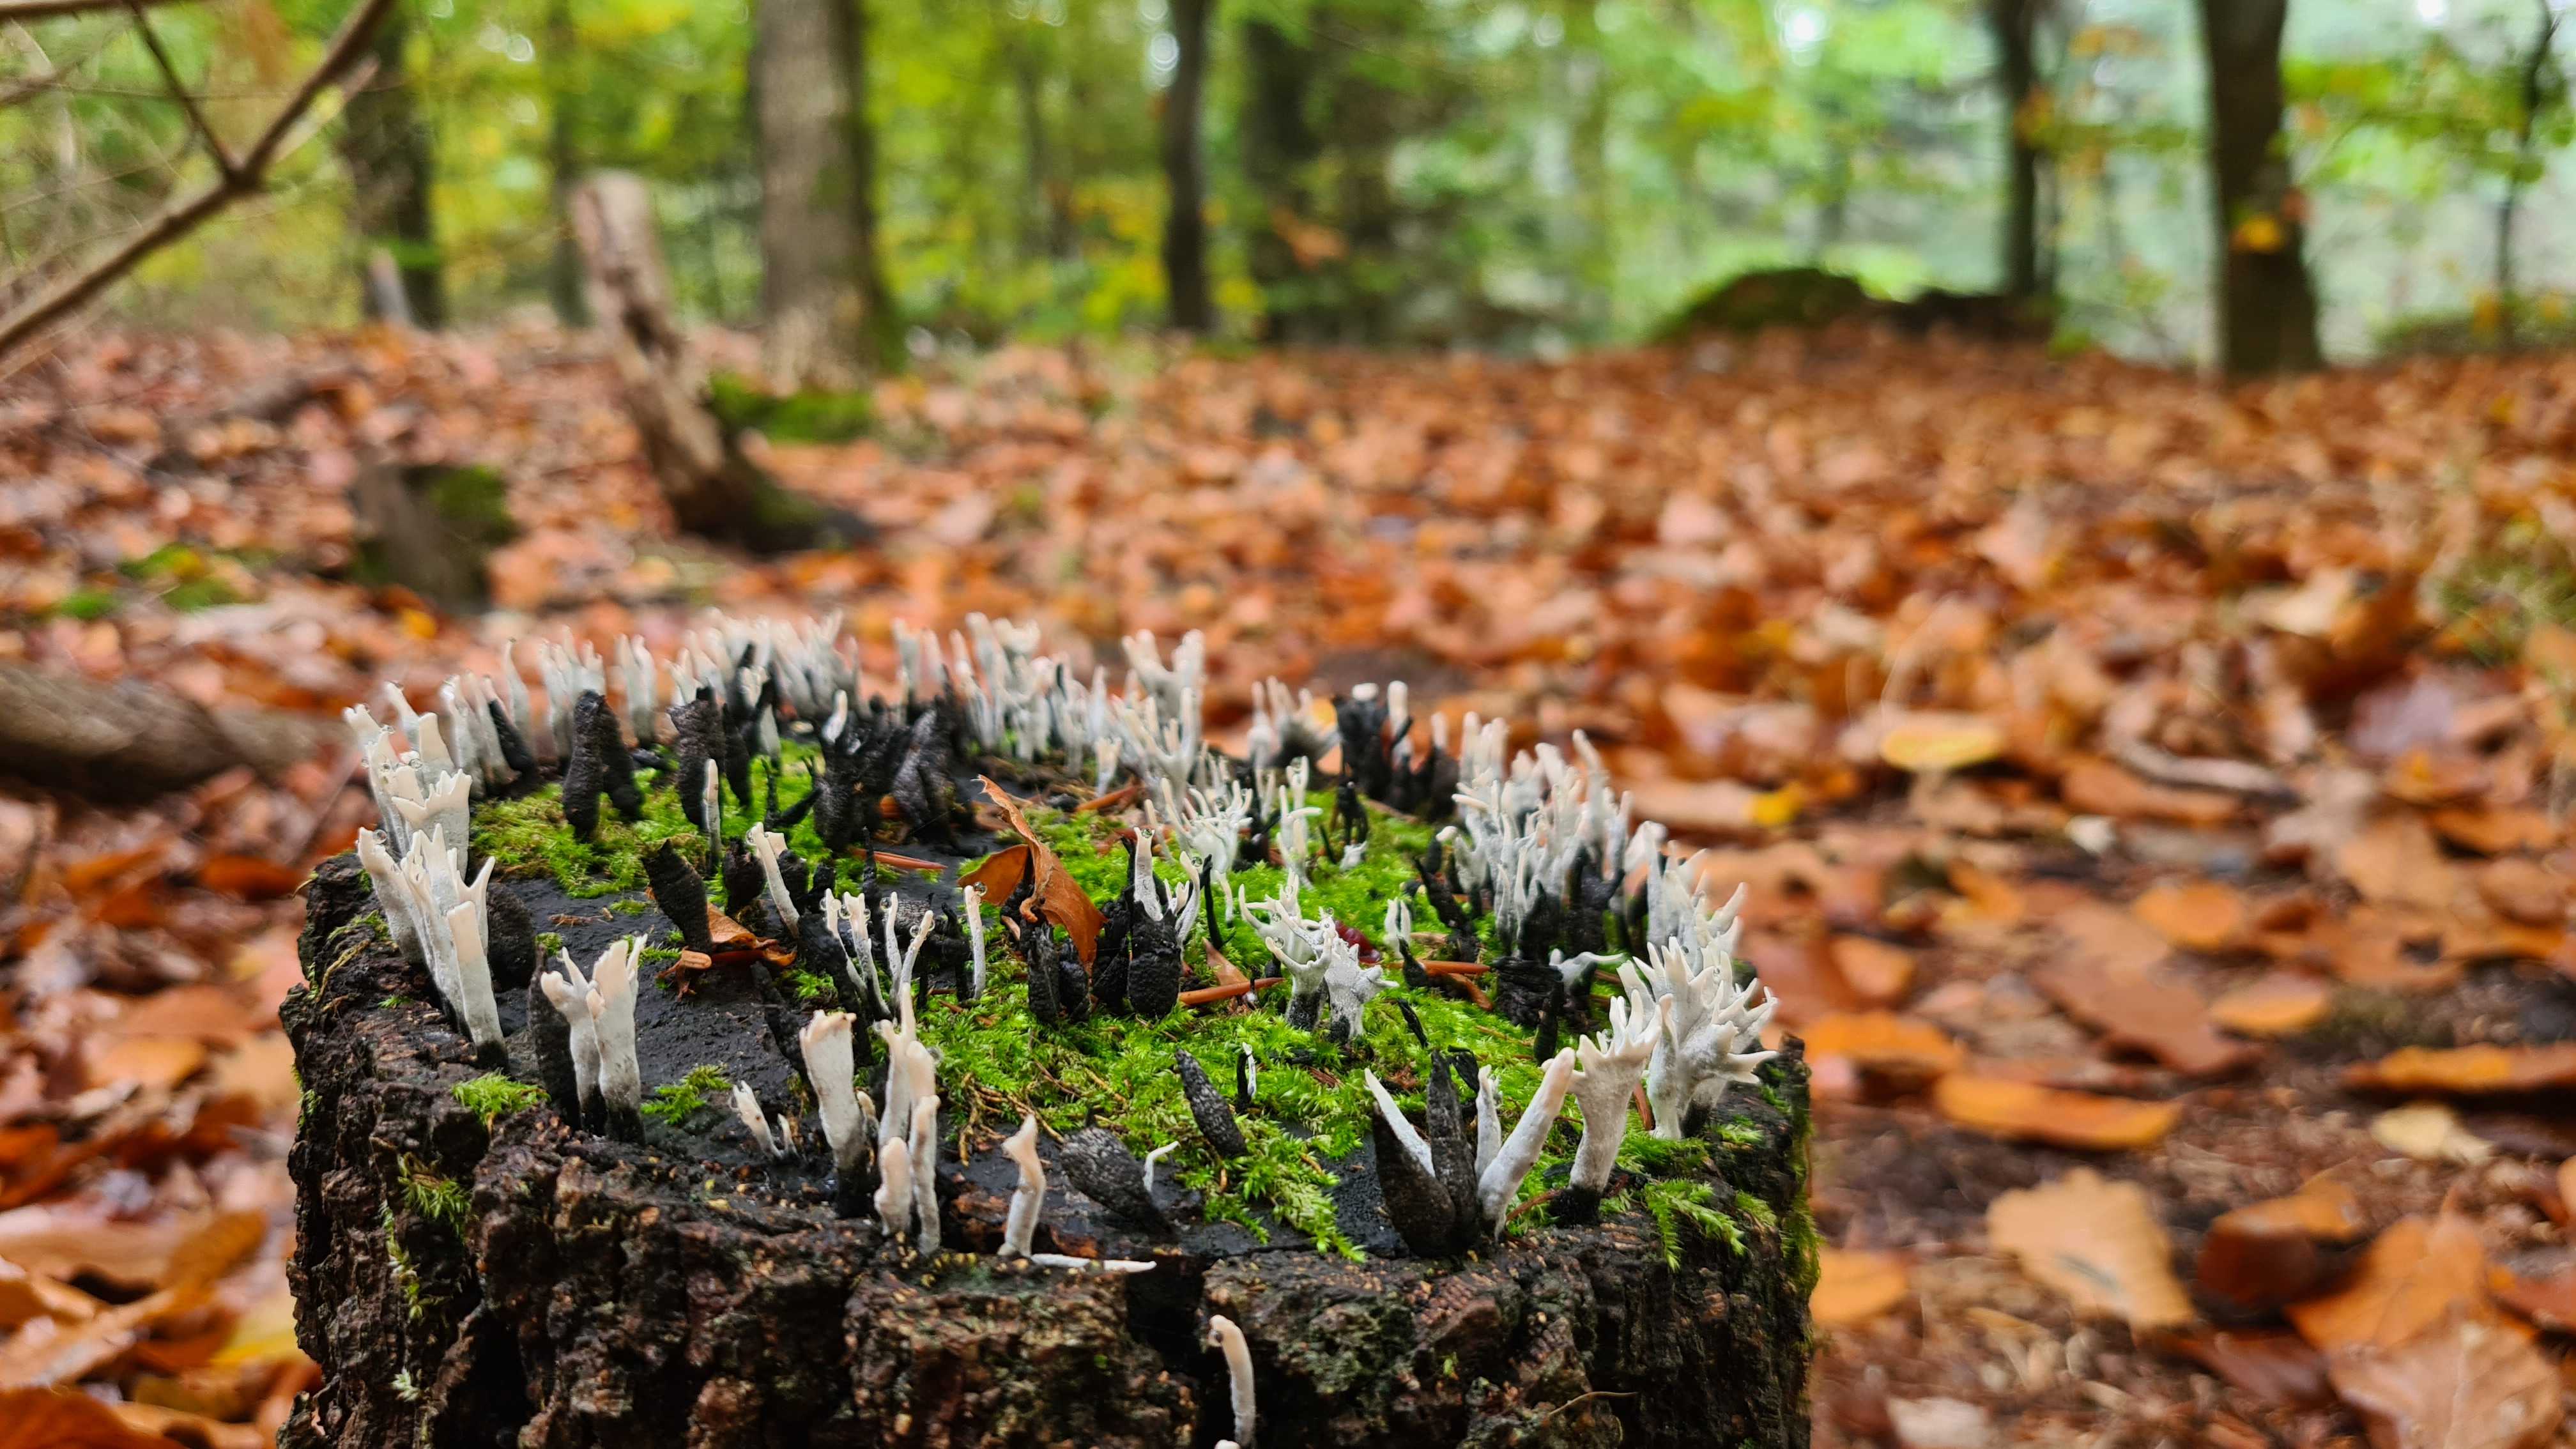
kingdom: Fungi
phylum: Ascomycota
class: Sordariomycetes
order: Xylariales
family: Xylariaceae
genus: Xylaria
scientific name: Xylaria hypoxylon
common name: grenet stødsvamp
